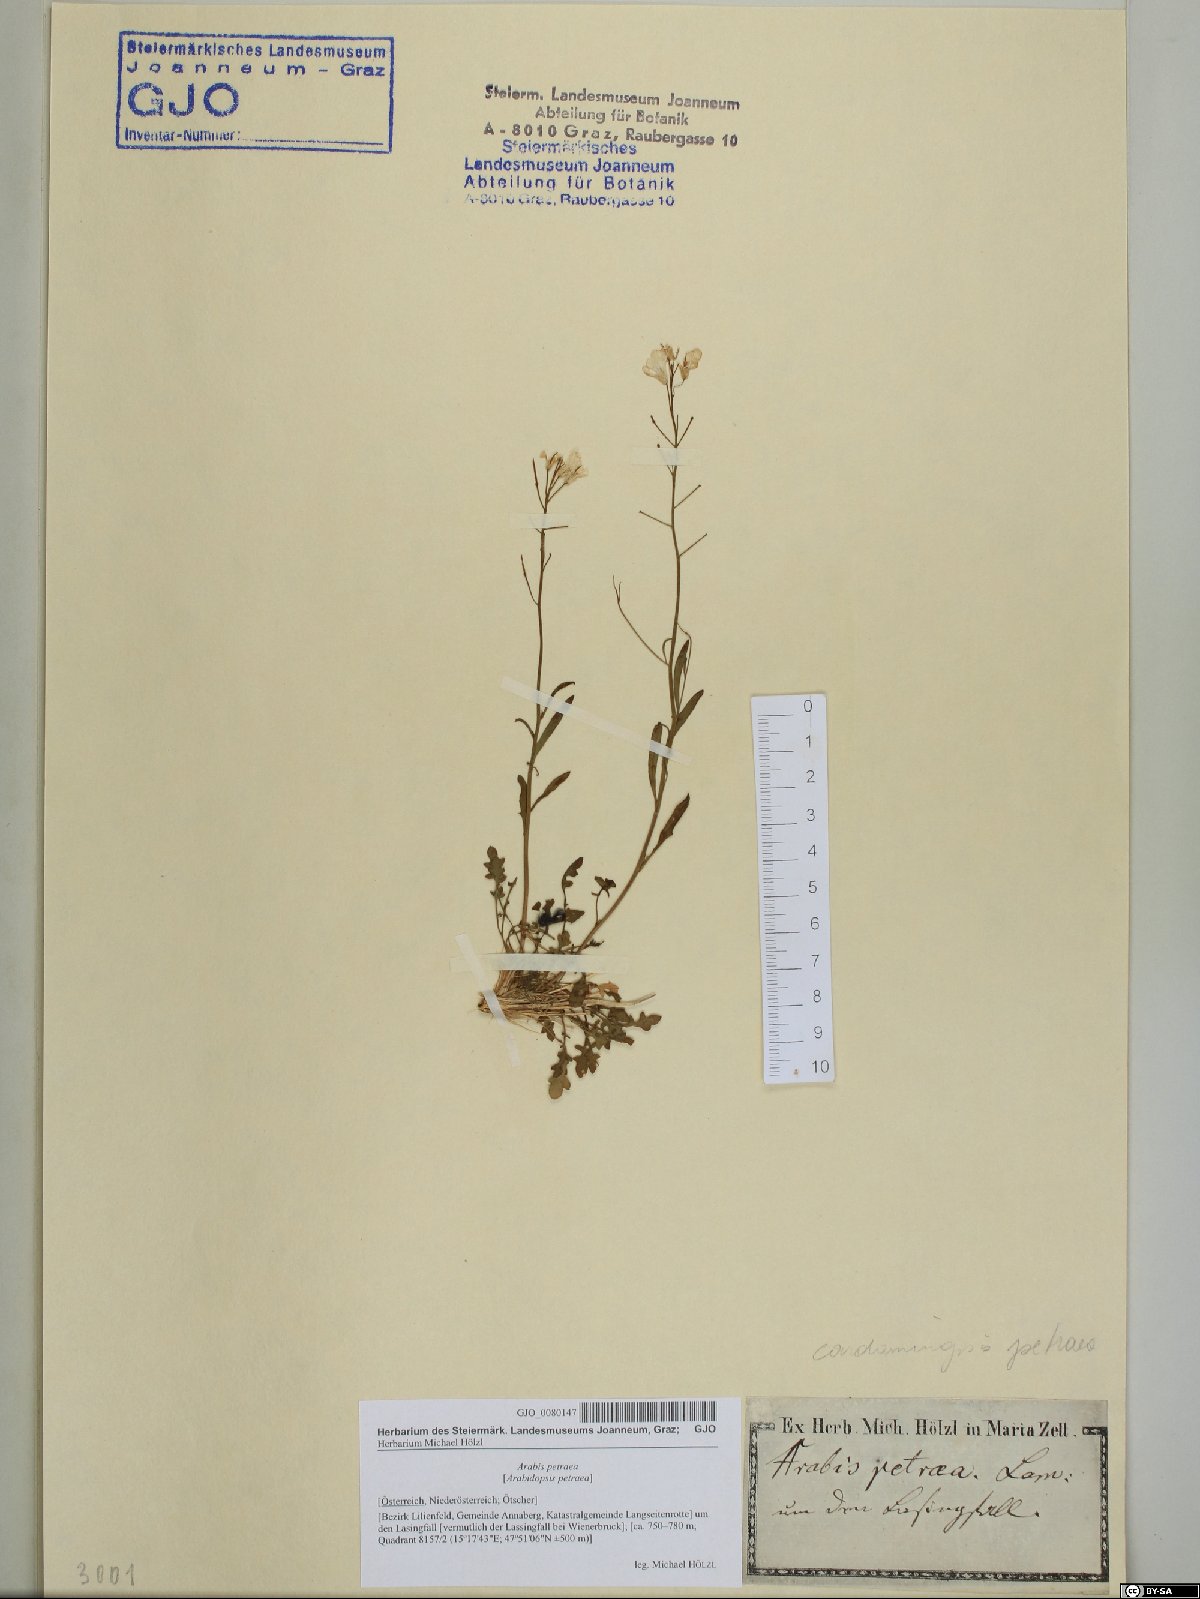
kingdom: Plantae
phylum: Tracheophyta
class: Magnoliopsida
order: Brassicales
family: Brassicaceae
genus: Arabidopsis
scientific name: Arabidopsis lyrata
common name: Lyrate rockcress
